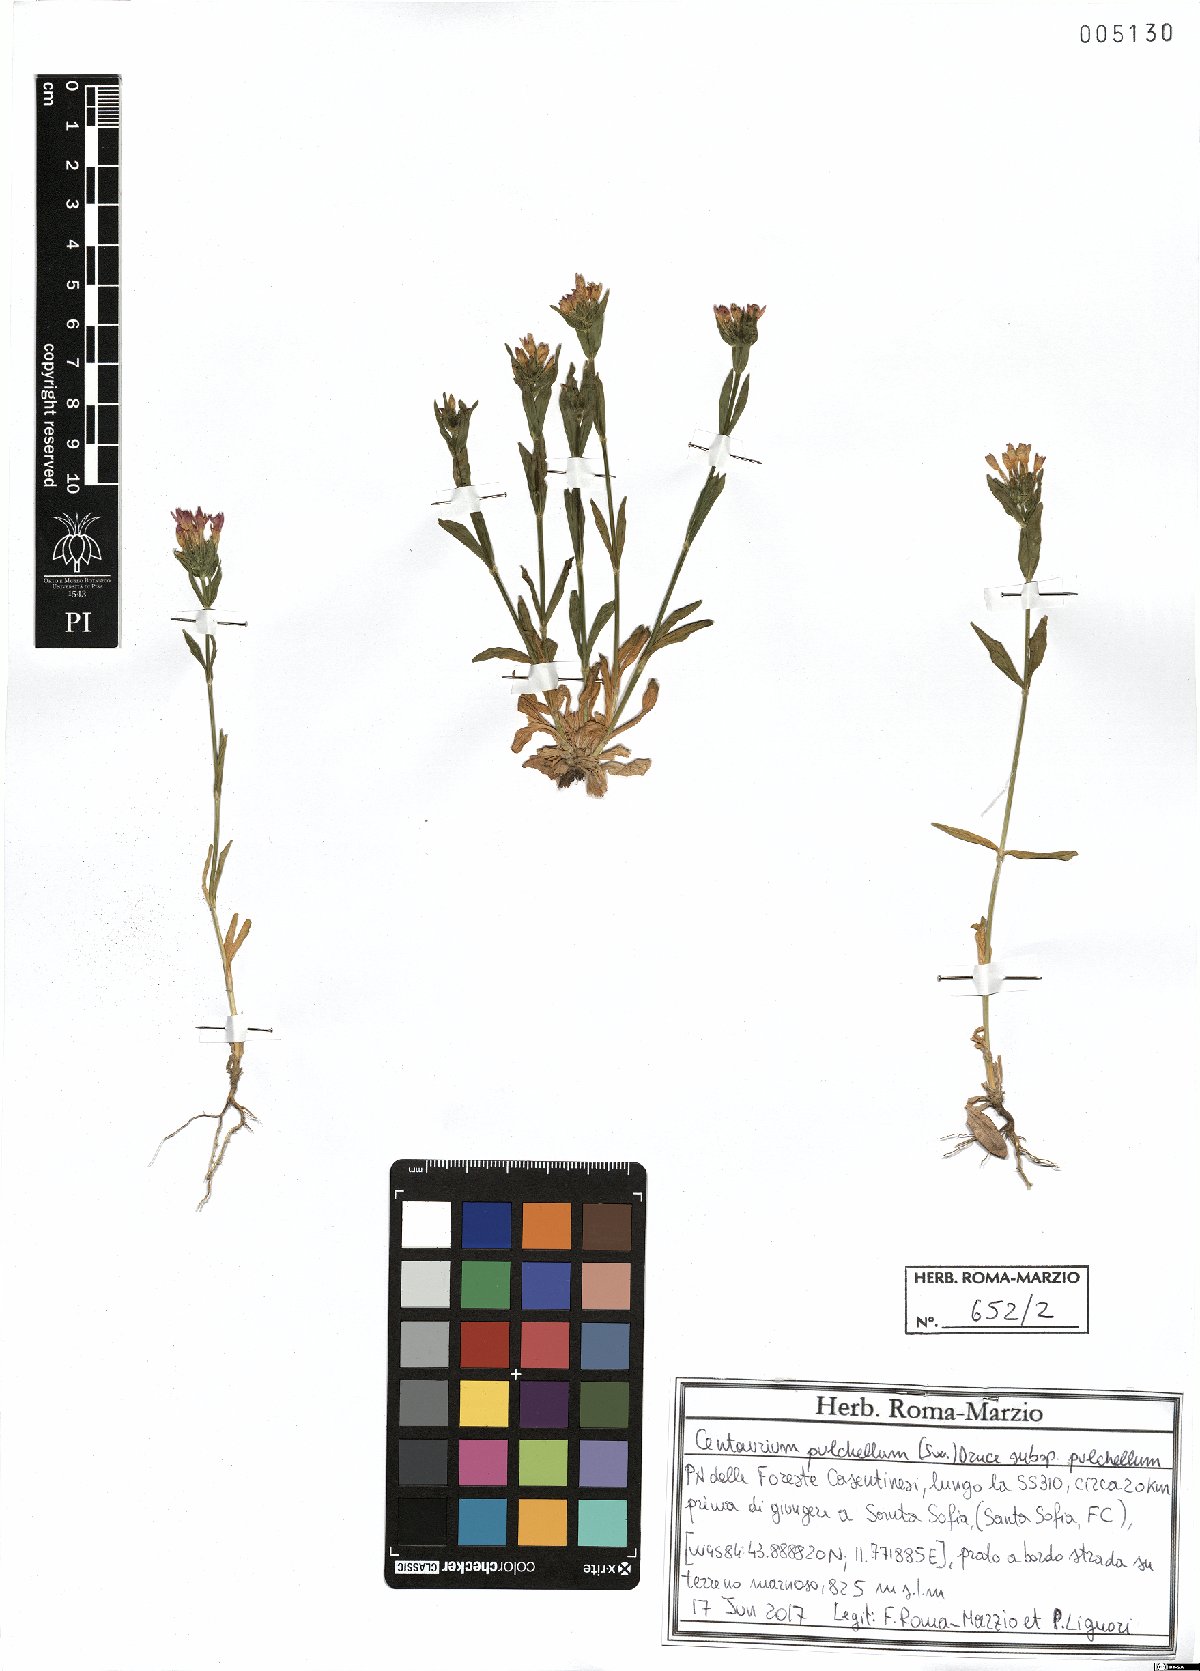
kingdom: Plantae
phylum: Tracheophyta
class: Magnoliopsida
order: Gentianales
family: Gentianaceae
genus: Centaurium
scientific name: Centaurium pulchellum
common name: Lesser centaury
